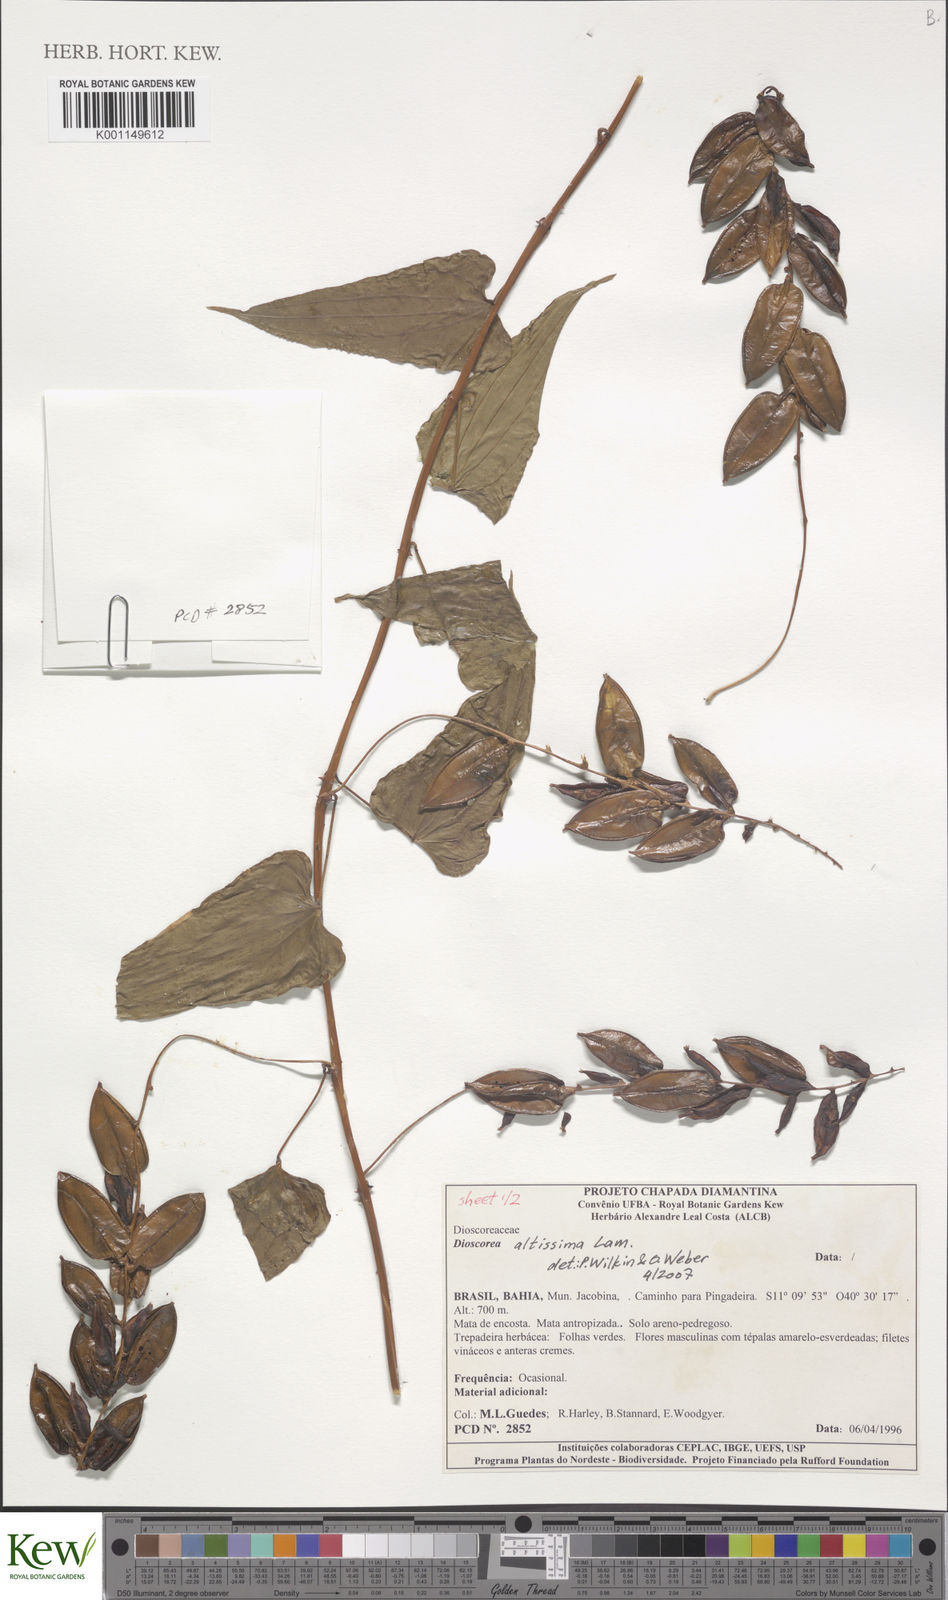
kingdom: Plantae
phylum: Tracheophyta
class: Liliopsida
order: Dioscoreales
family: Dioscoreaceae
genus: Dioscorea
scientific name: Dioscorea chondrocarpa
